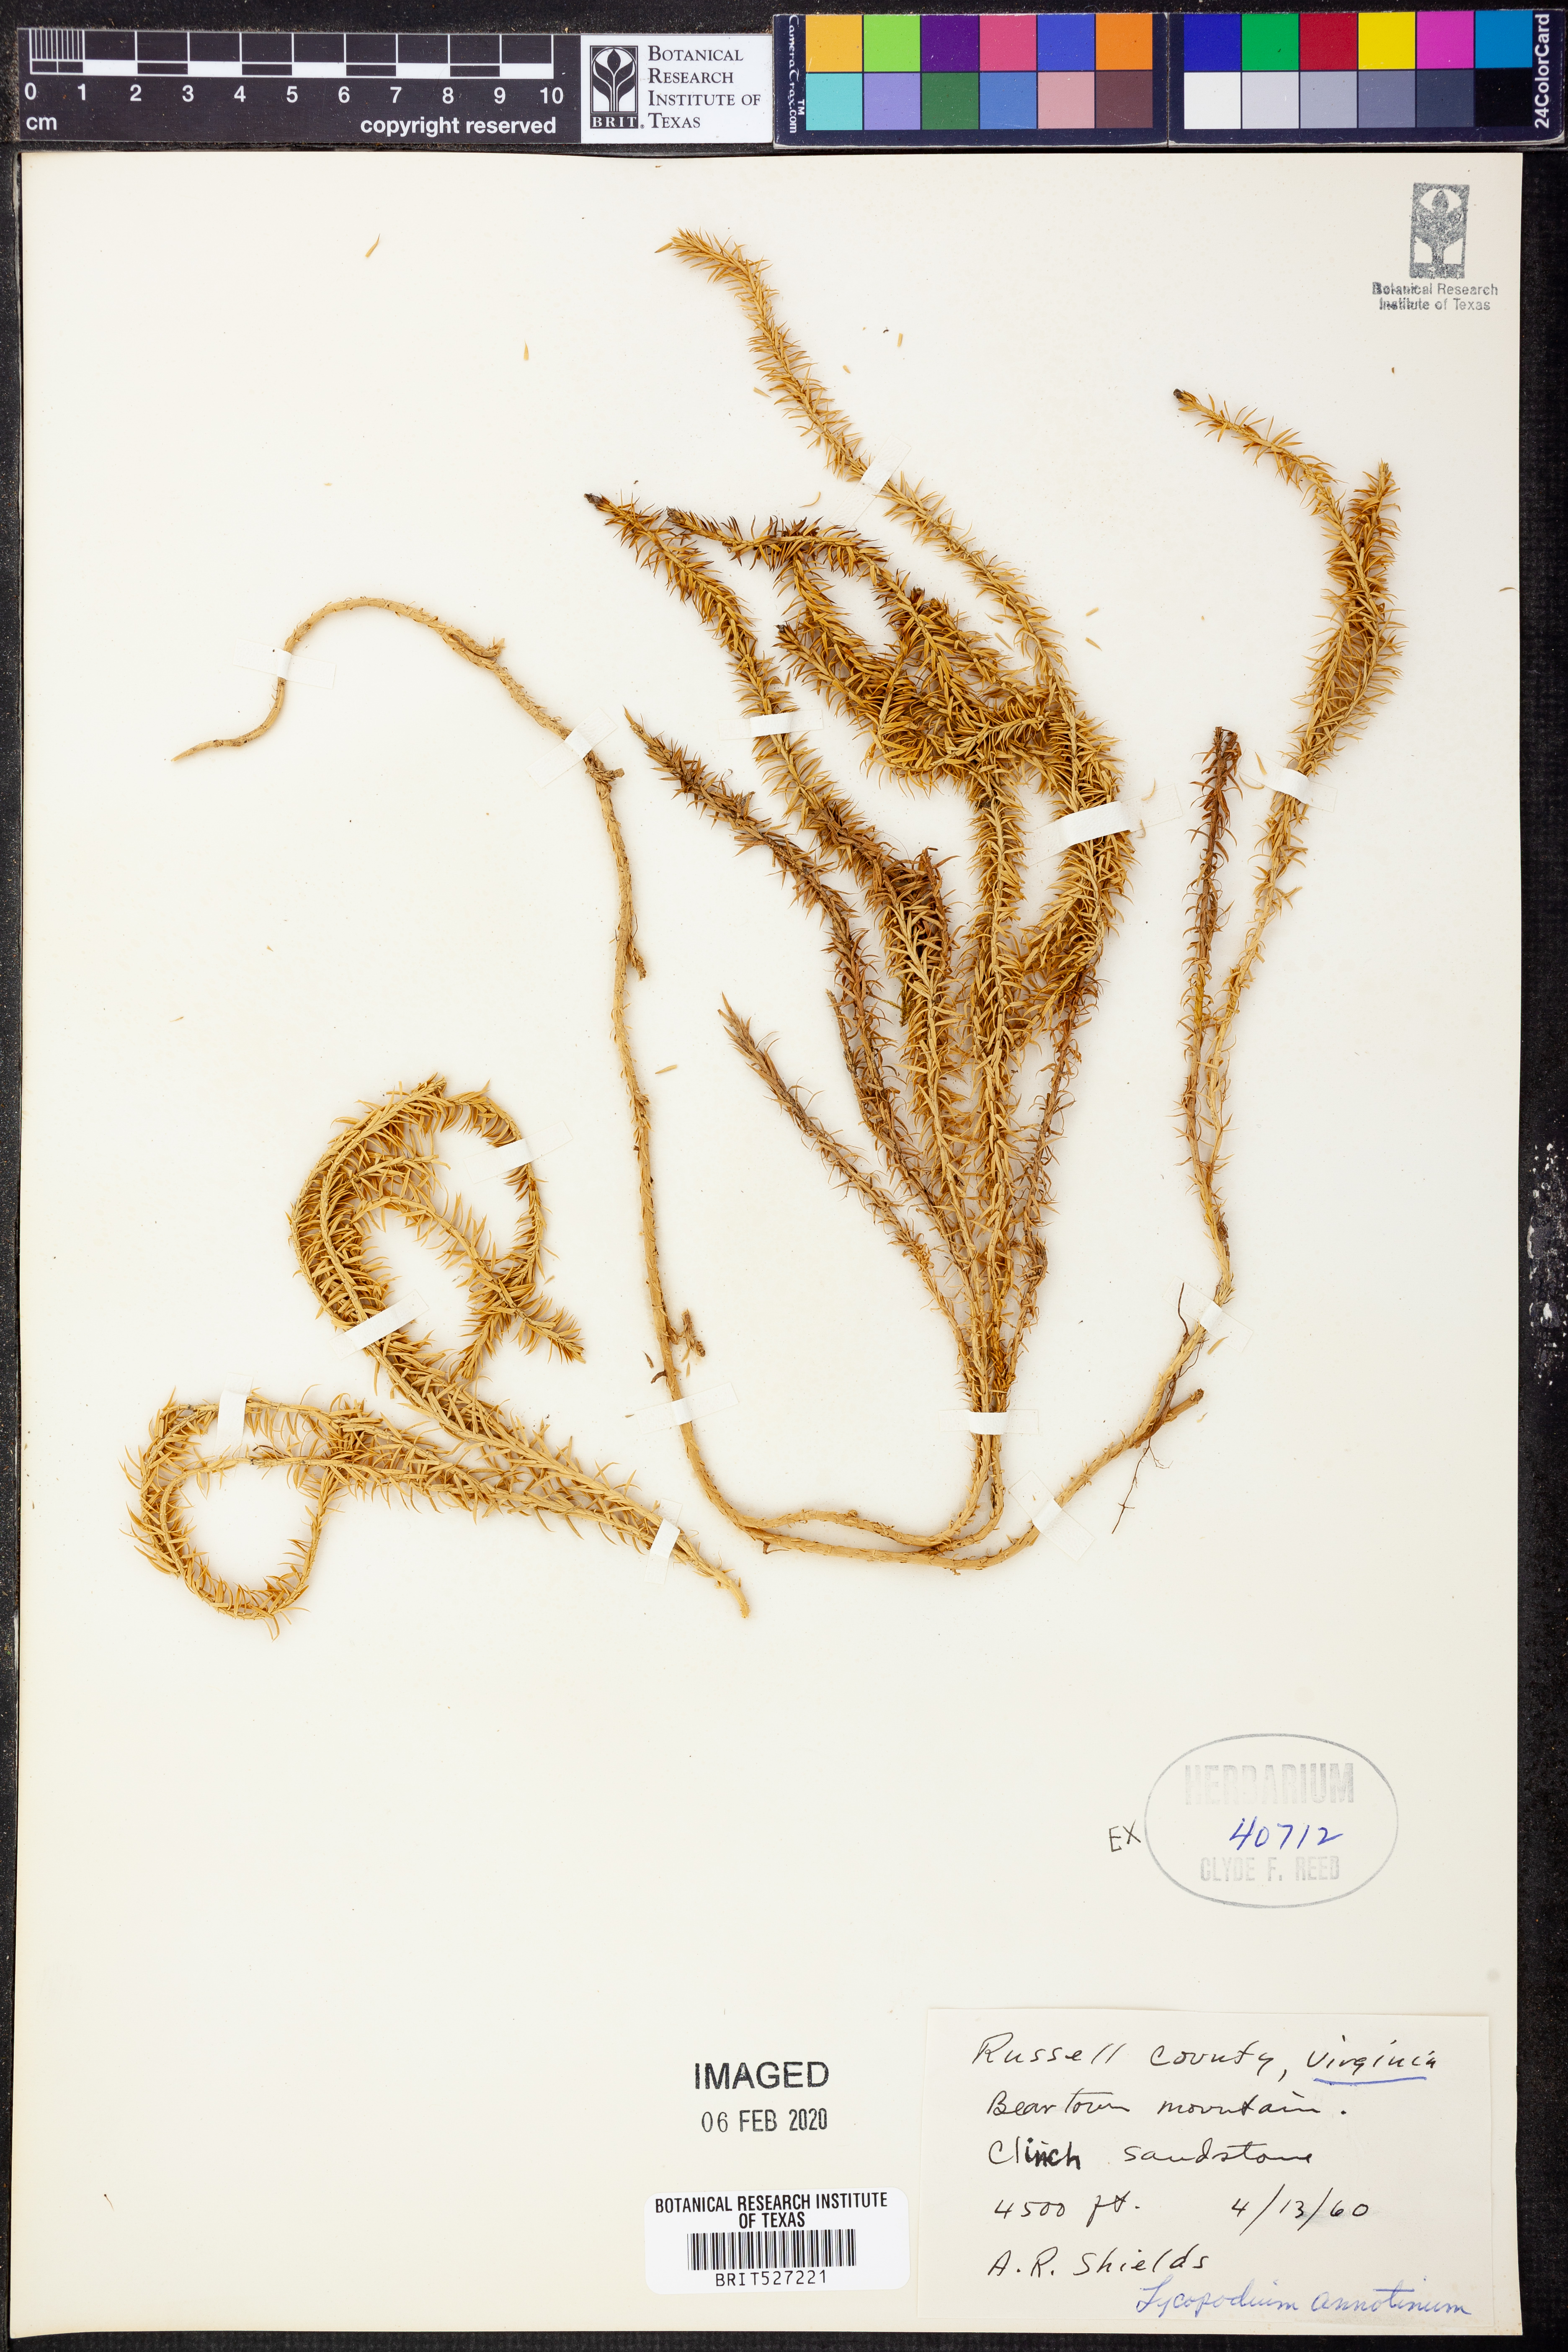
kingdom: Plantae
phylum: Tracheophyta
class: Lycopodiopsida
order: Lycopodiales
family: Lycopodiaceae
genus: Spinulum
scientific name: Spinulum annotinum
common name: Interrupted club-moss
